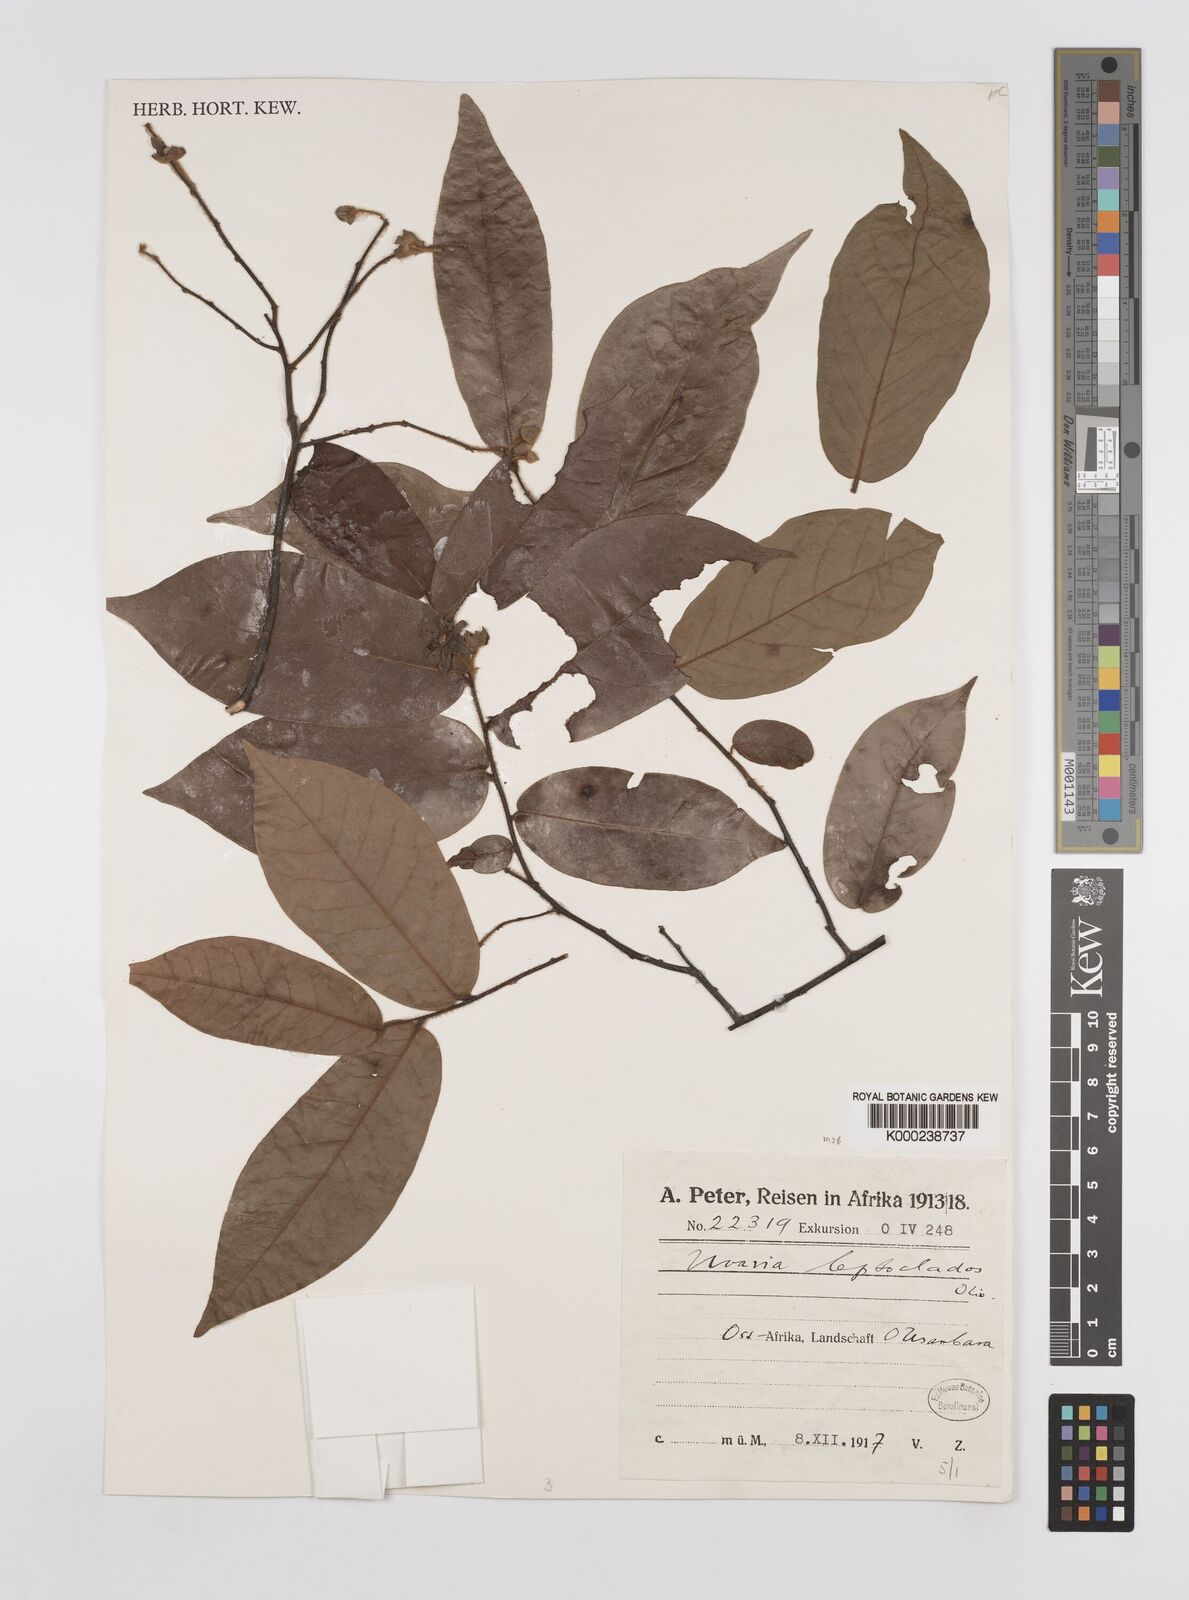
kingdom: Plantae
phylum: Tracheophyta
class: Magnoliopsida
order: Magnoliales
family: Annonaceae
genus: Uvaria
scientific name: Uvaria leptocladon
